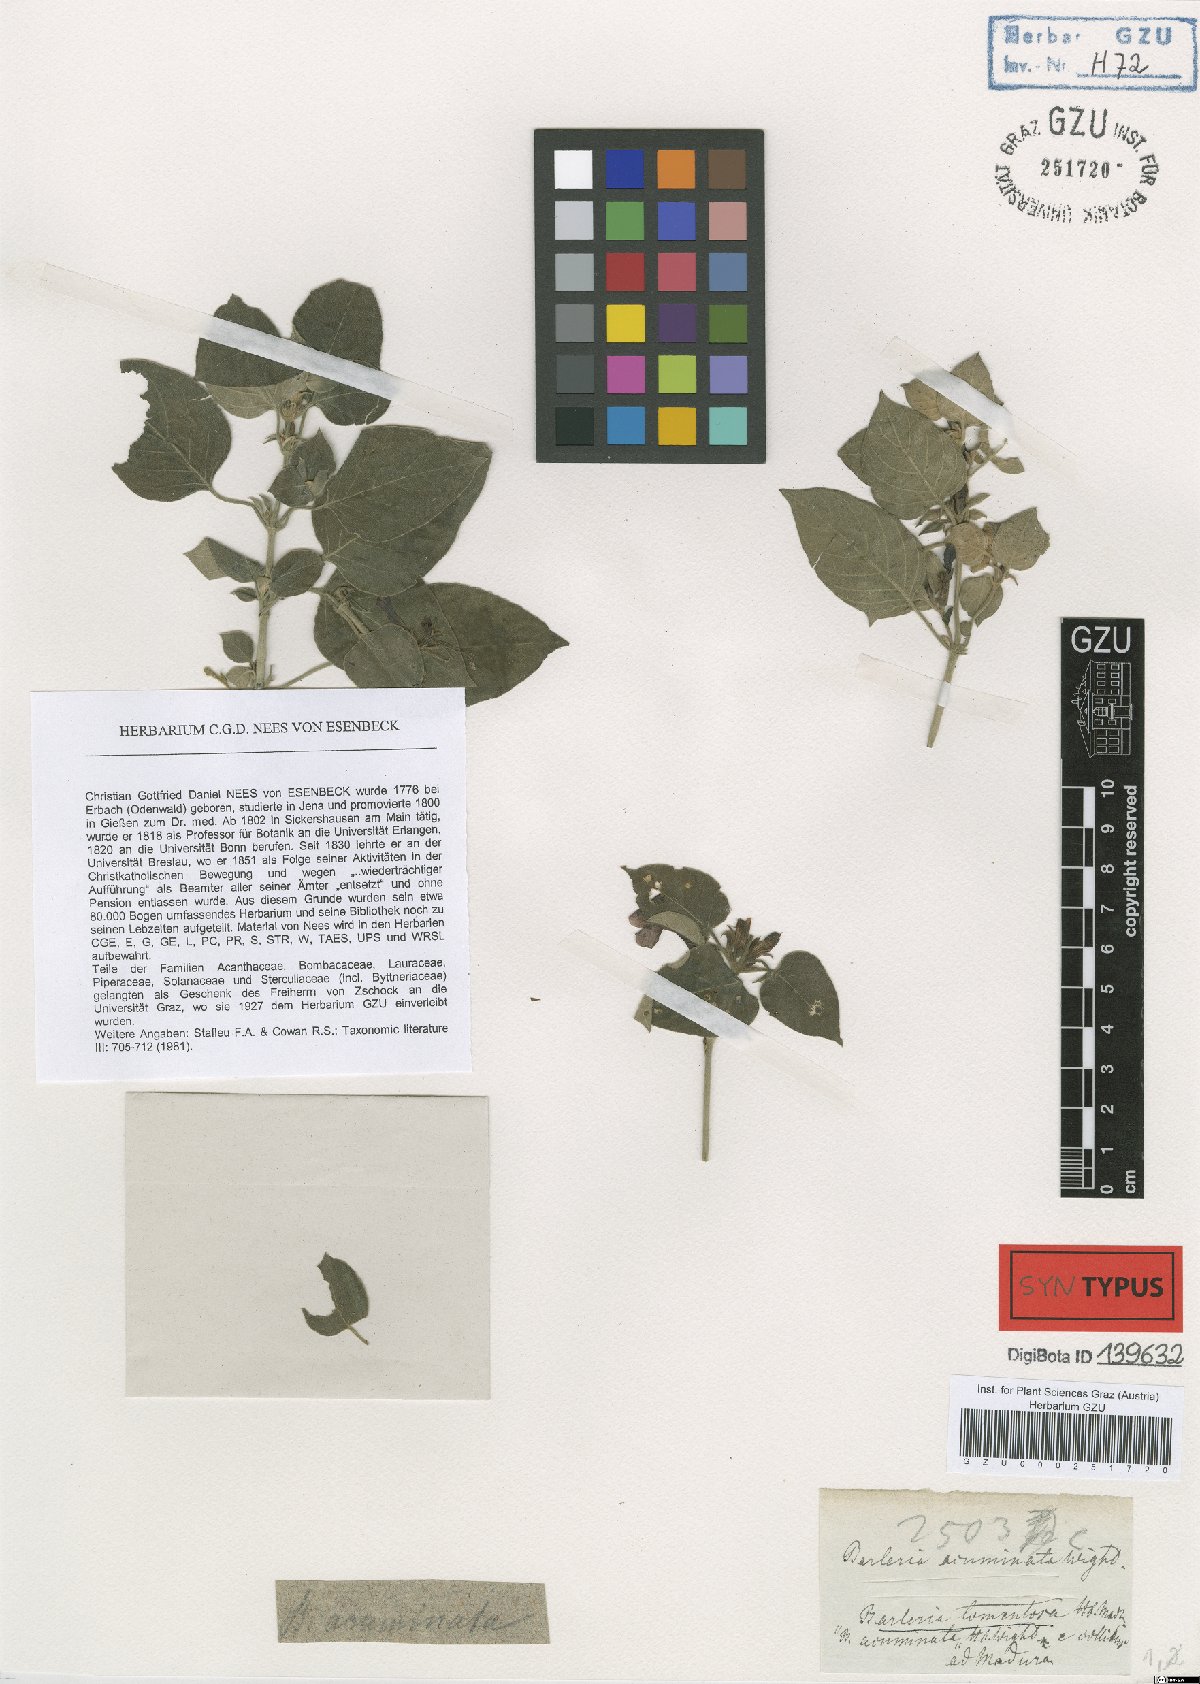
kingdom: Plantae
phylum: Tracheophyta
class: Magnoliopsida
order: Lamiales
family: Acanthaceae
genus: Barleria
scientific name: Barleria acuminata
